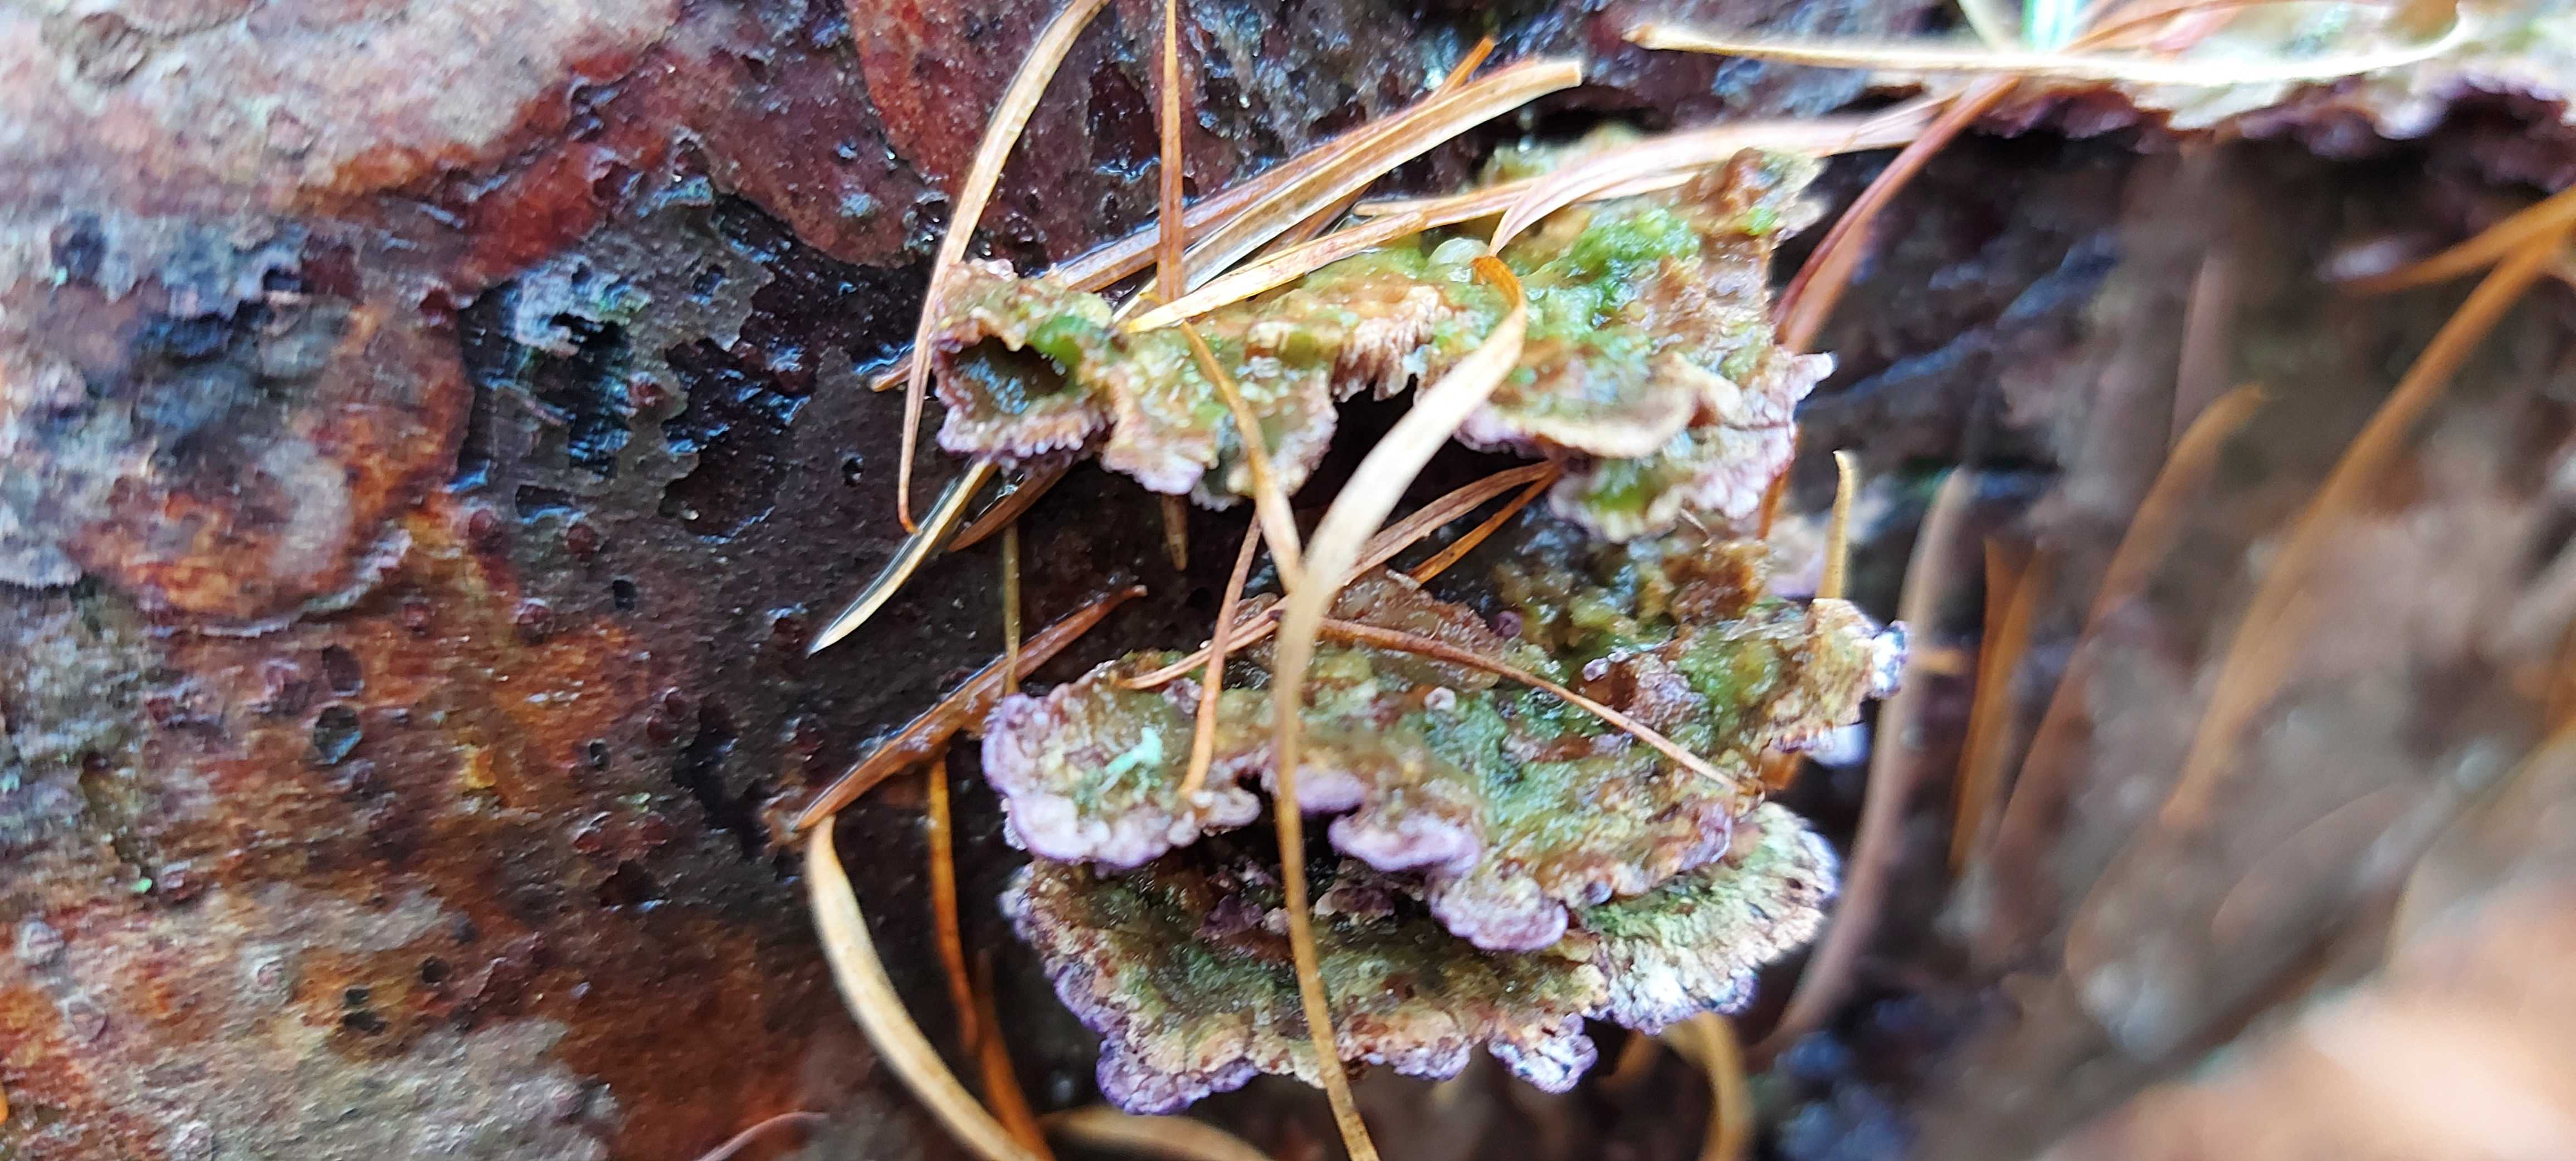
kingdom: Fungi
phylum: Basidiomycota
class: Agaricomycetes
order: Hymenochaetales
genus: Trichaptum
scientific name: Trichaptum fuscoviolaceum
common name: tandet violporesvamp
